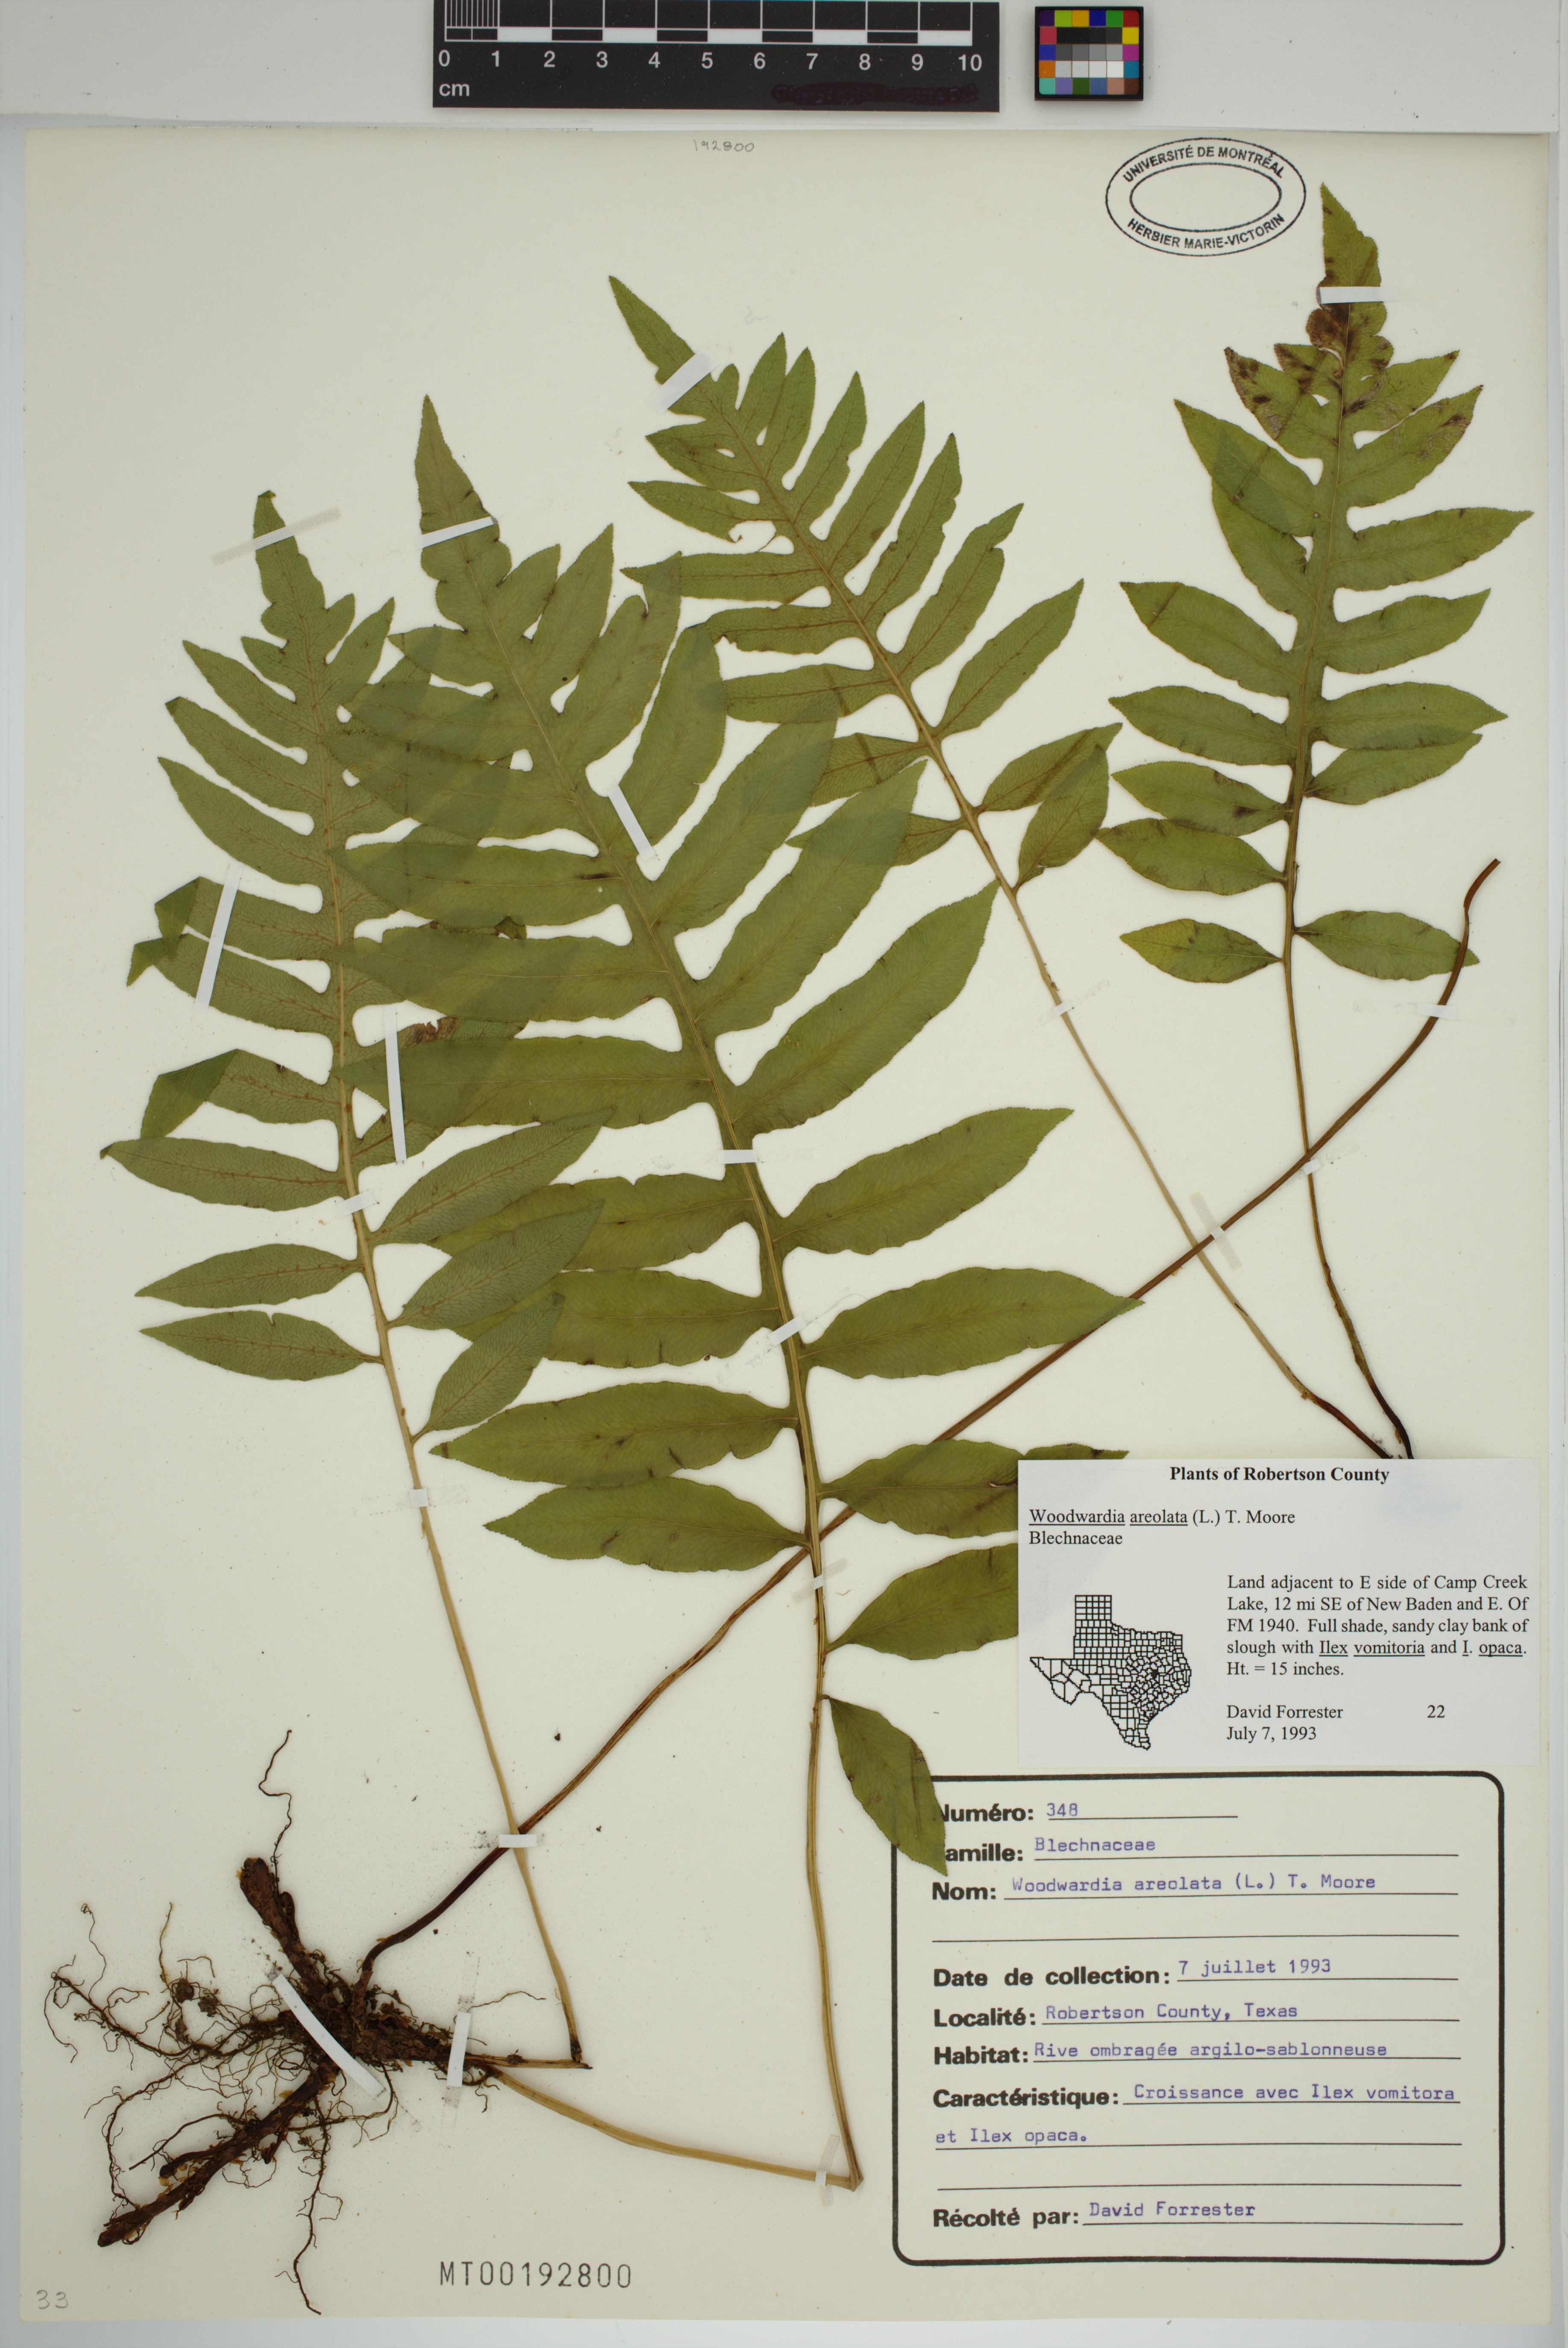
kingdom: Plantae
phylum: Tracheophyta
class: Polypodiopsida
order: Polypodiales
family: Blechnaceae
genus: Lorinseria
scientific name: Lorinseria areolata
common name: Dwarf chain fern
